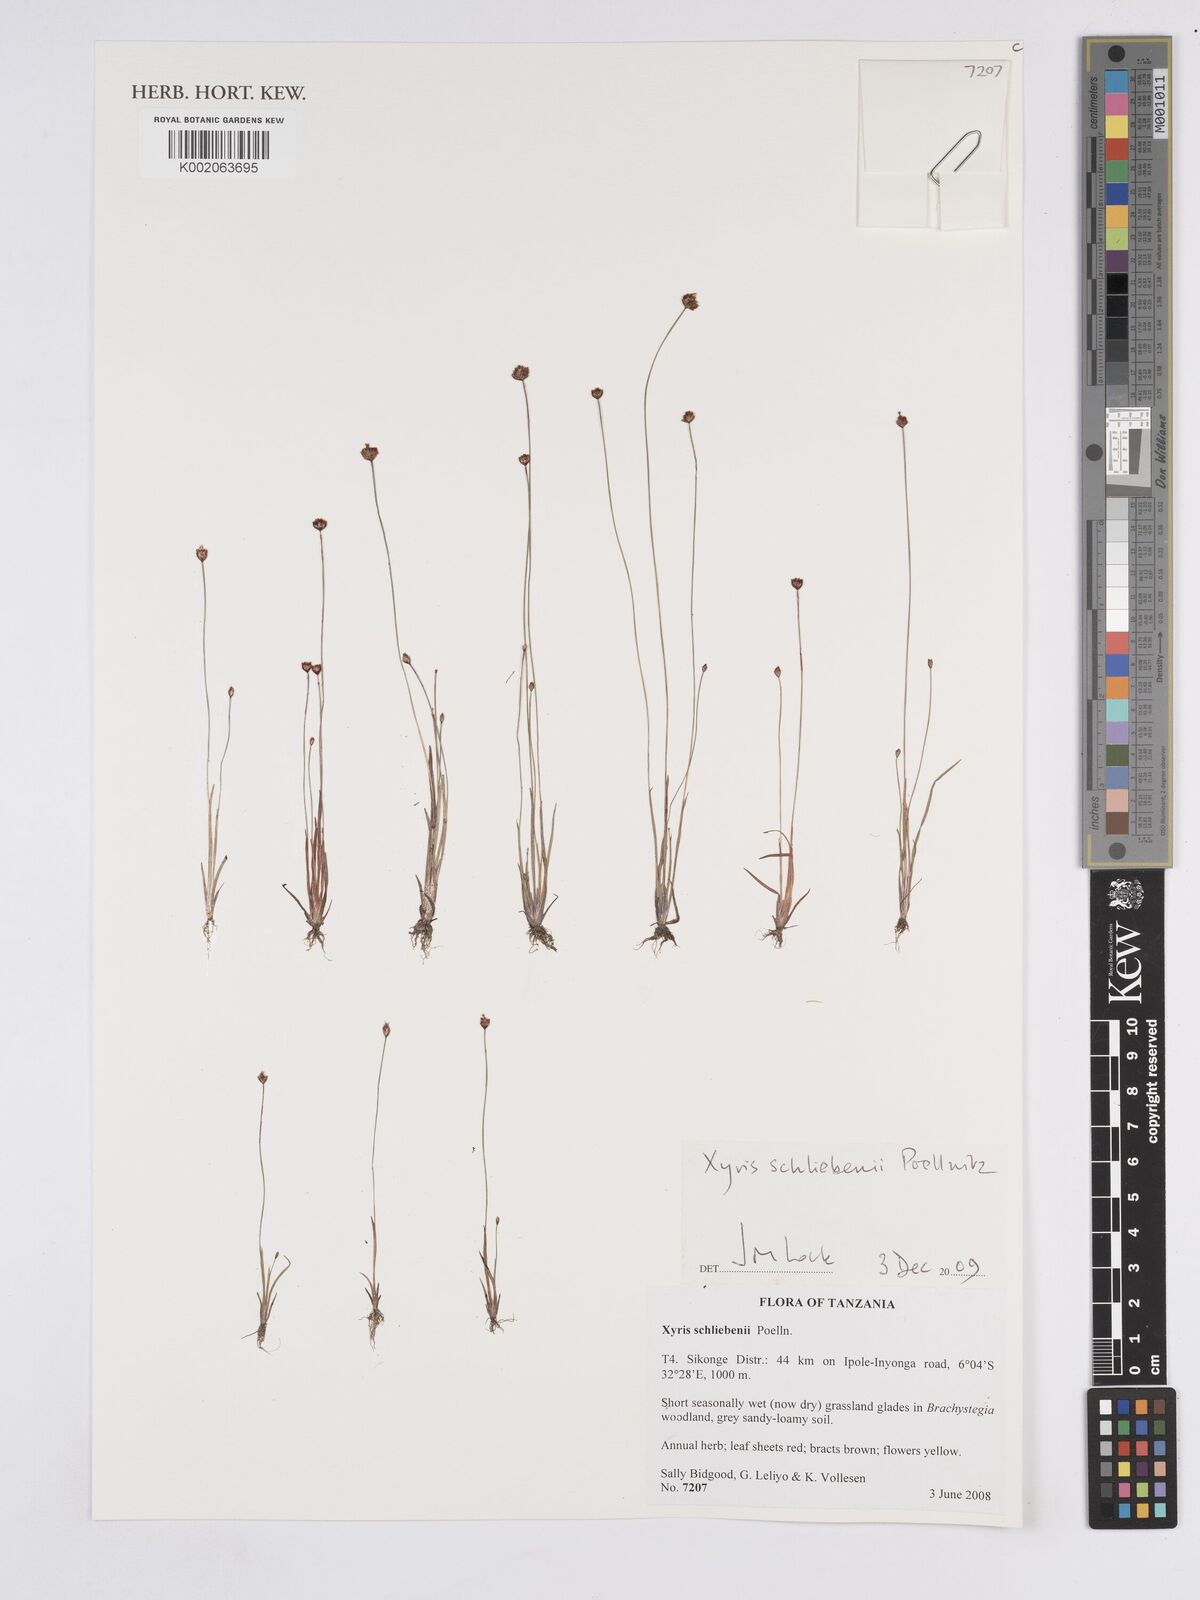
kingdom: Plantae
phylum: Tracheophyta
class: Liliopsida
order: Poales
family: Xyridaceae
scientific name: Xyridaceae
